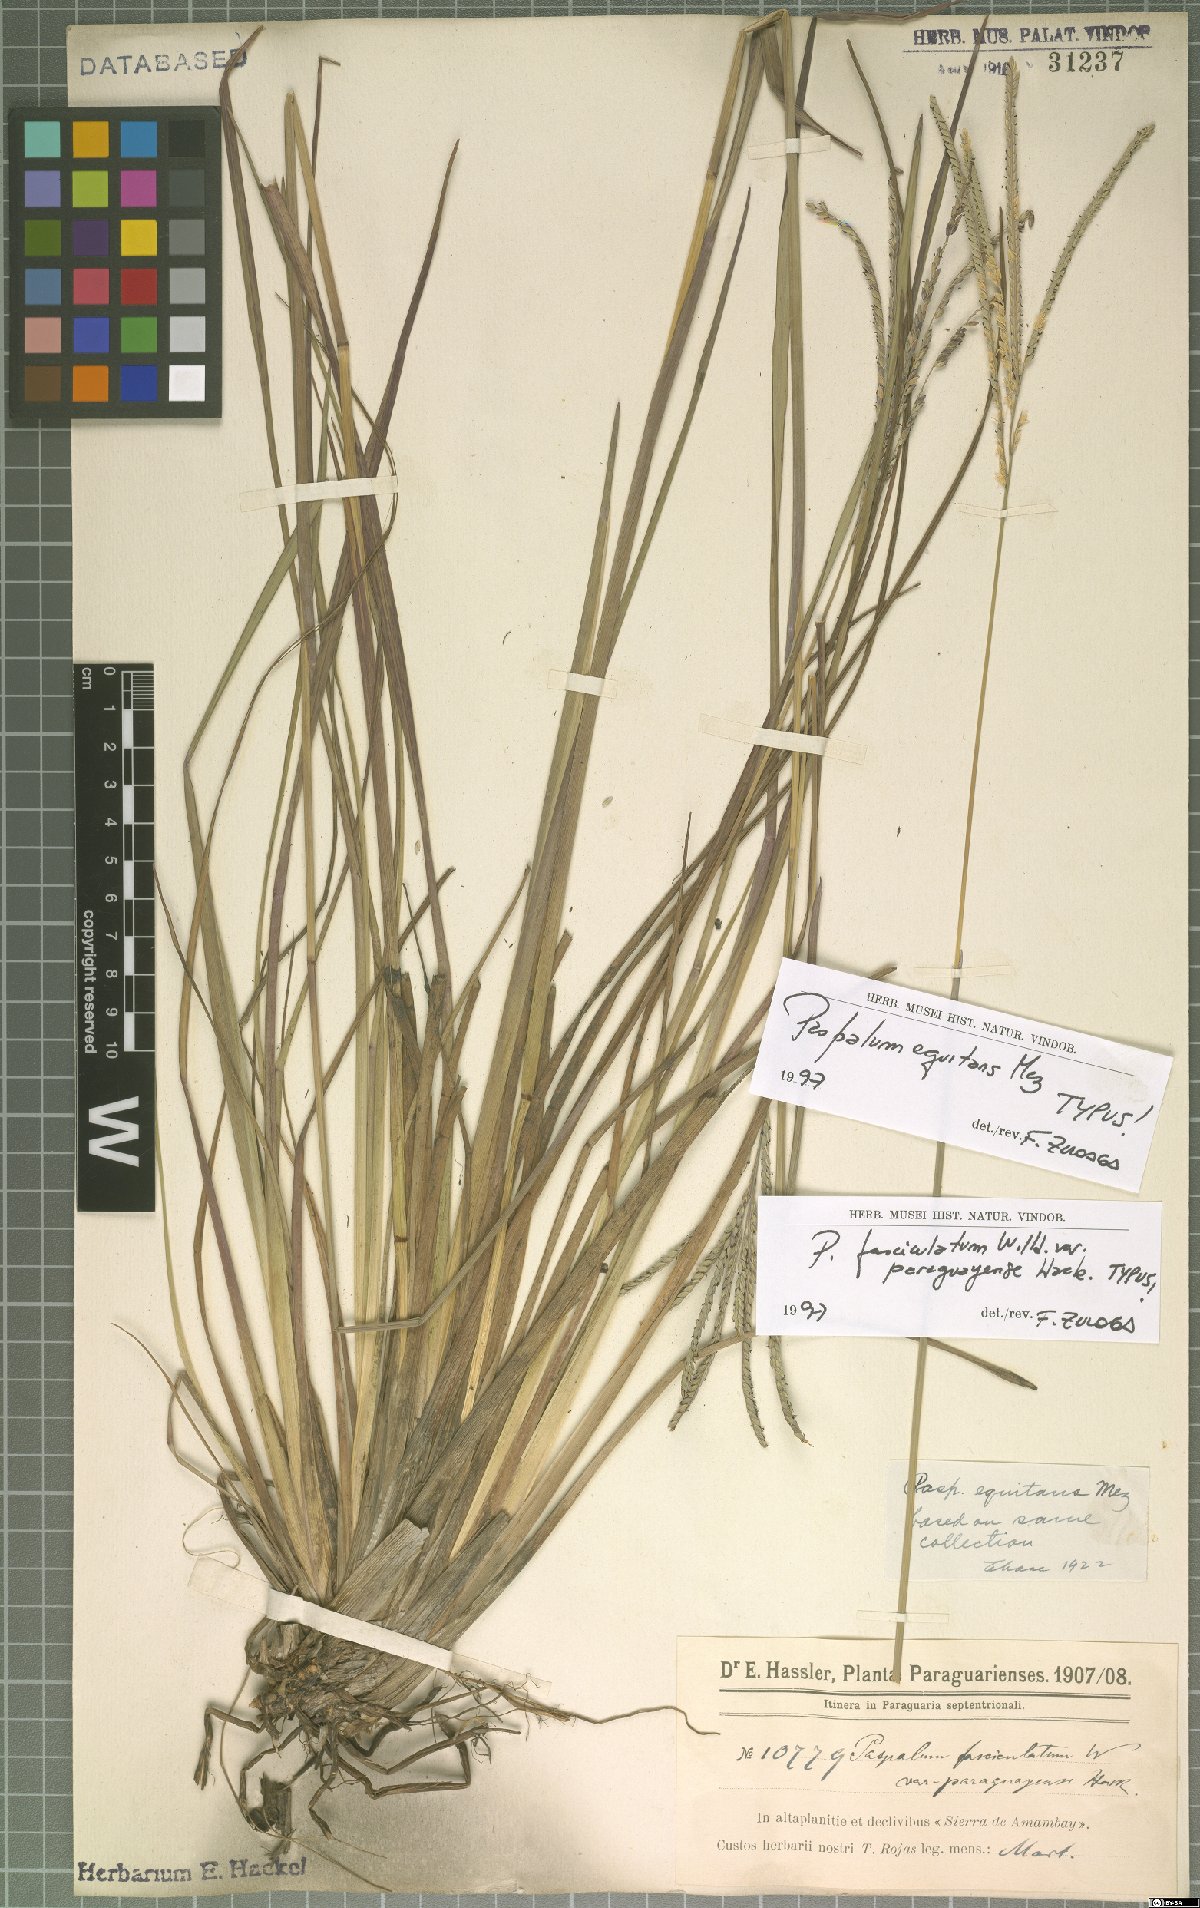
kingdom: Plantae
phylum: Tracheophyta
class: Liliopsida
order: Poales
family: Poaceae
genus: Paspalum
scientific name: Paspalum equitans
